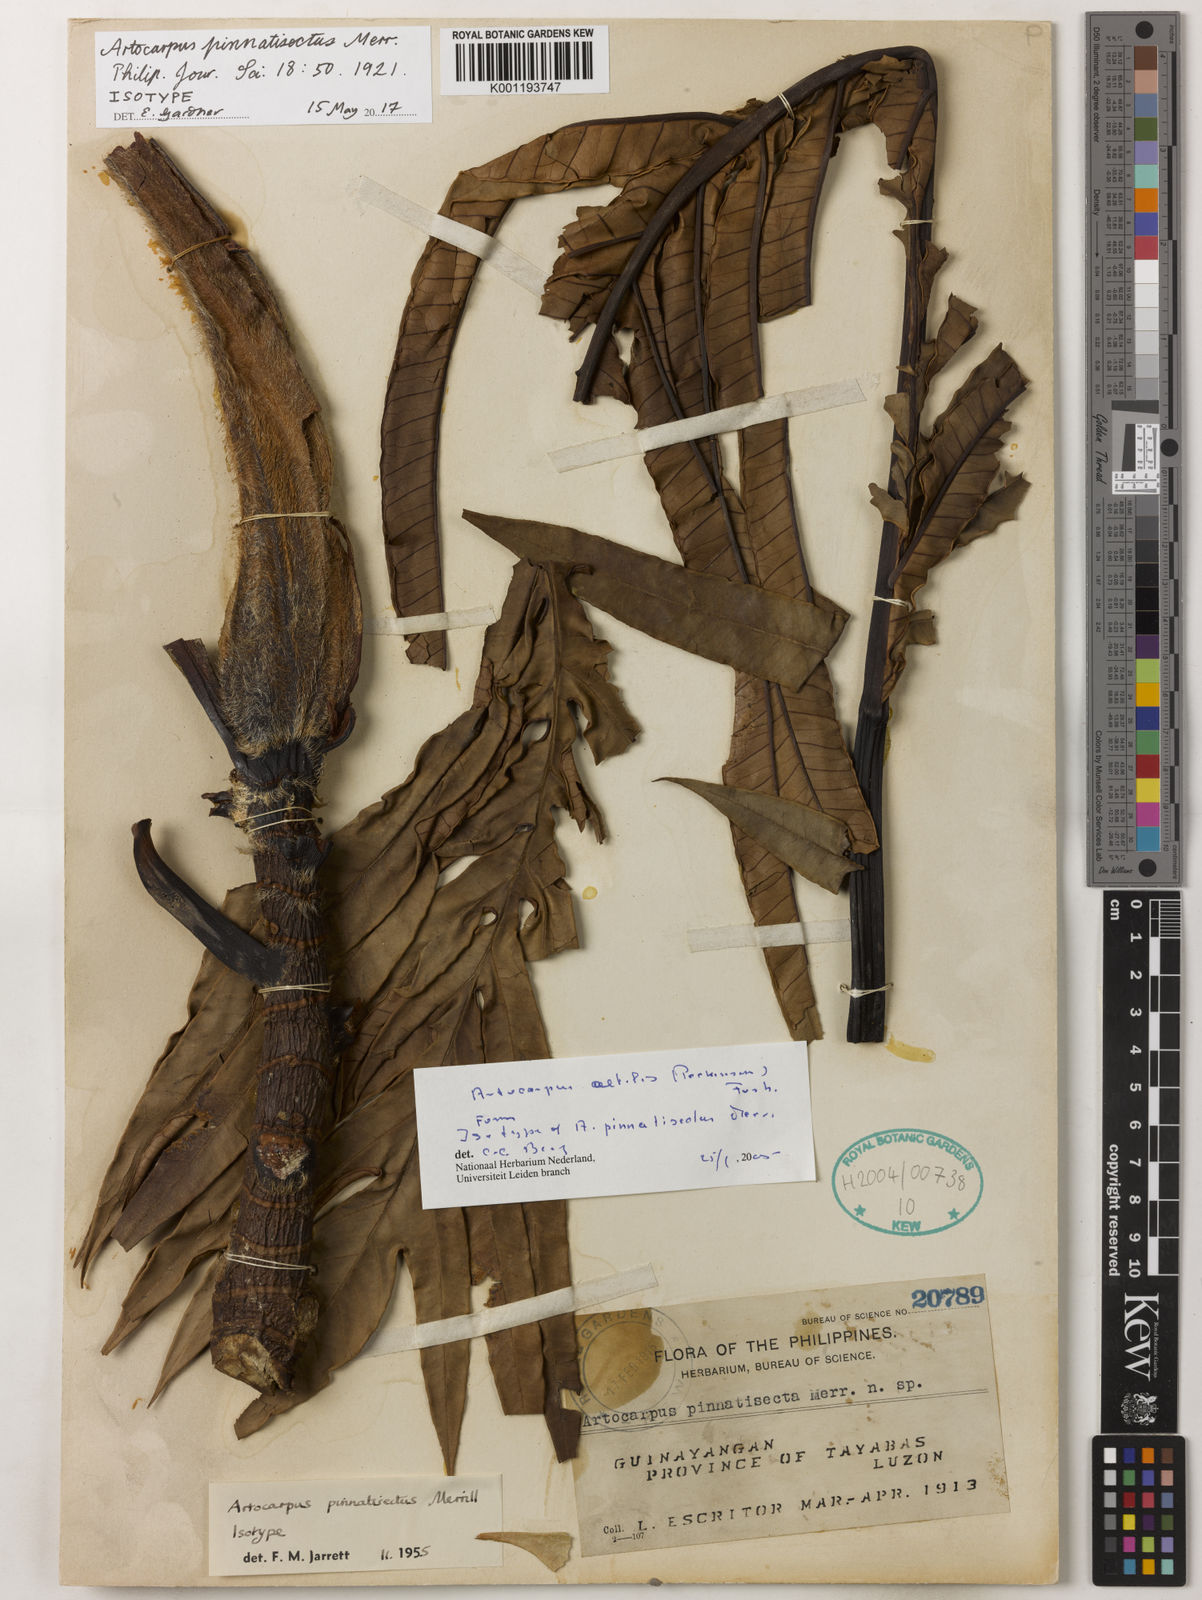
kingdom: Plantae
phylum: Tracheophyta
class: Magnoliopsida
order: Rosales
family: Moraceae
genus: Artocarpus
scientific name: Artocarpus altilis
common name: Breadfruit
